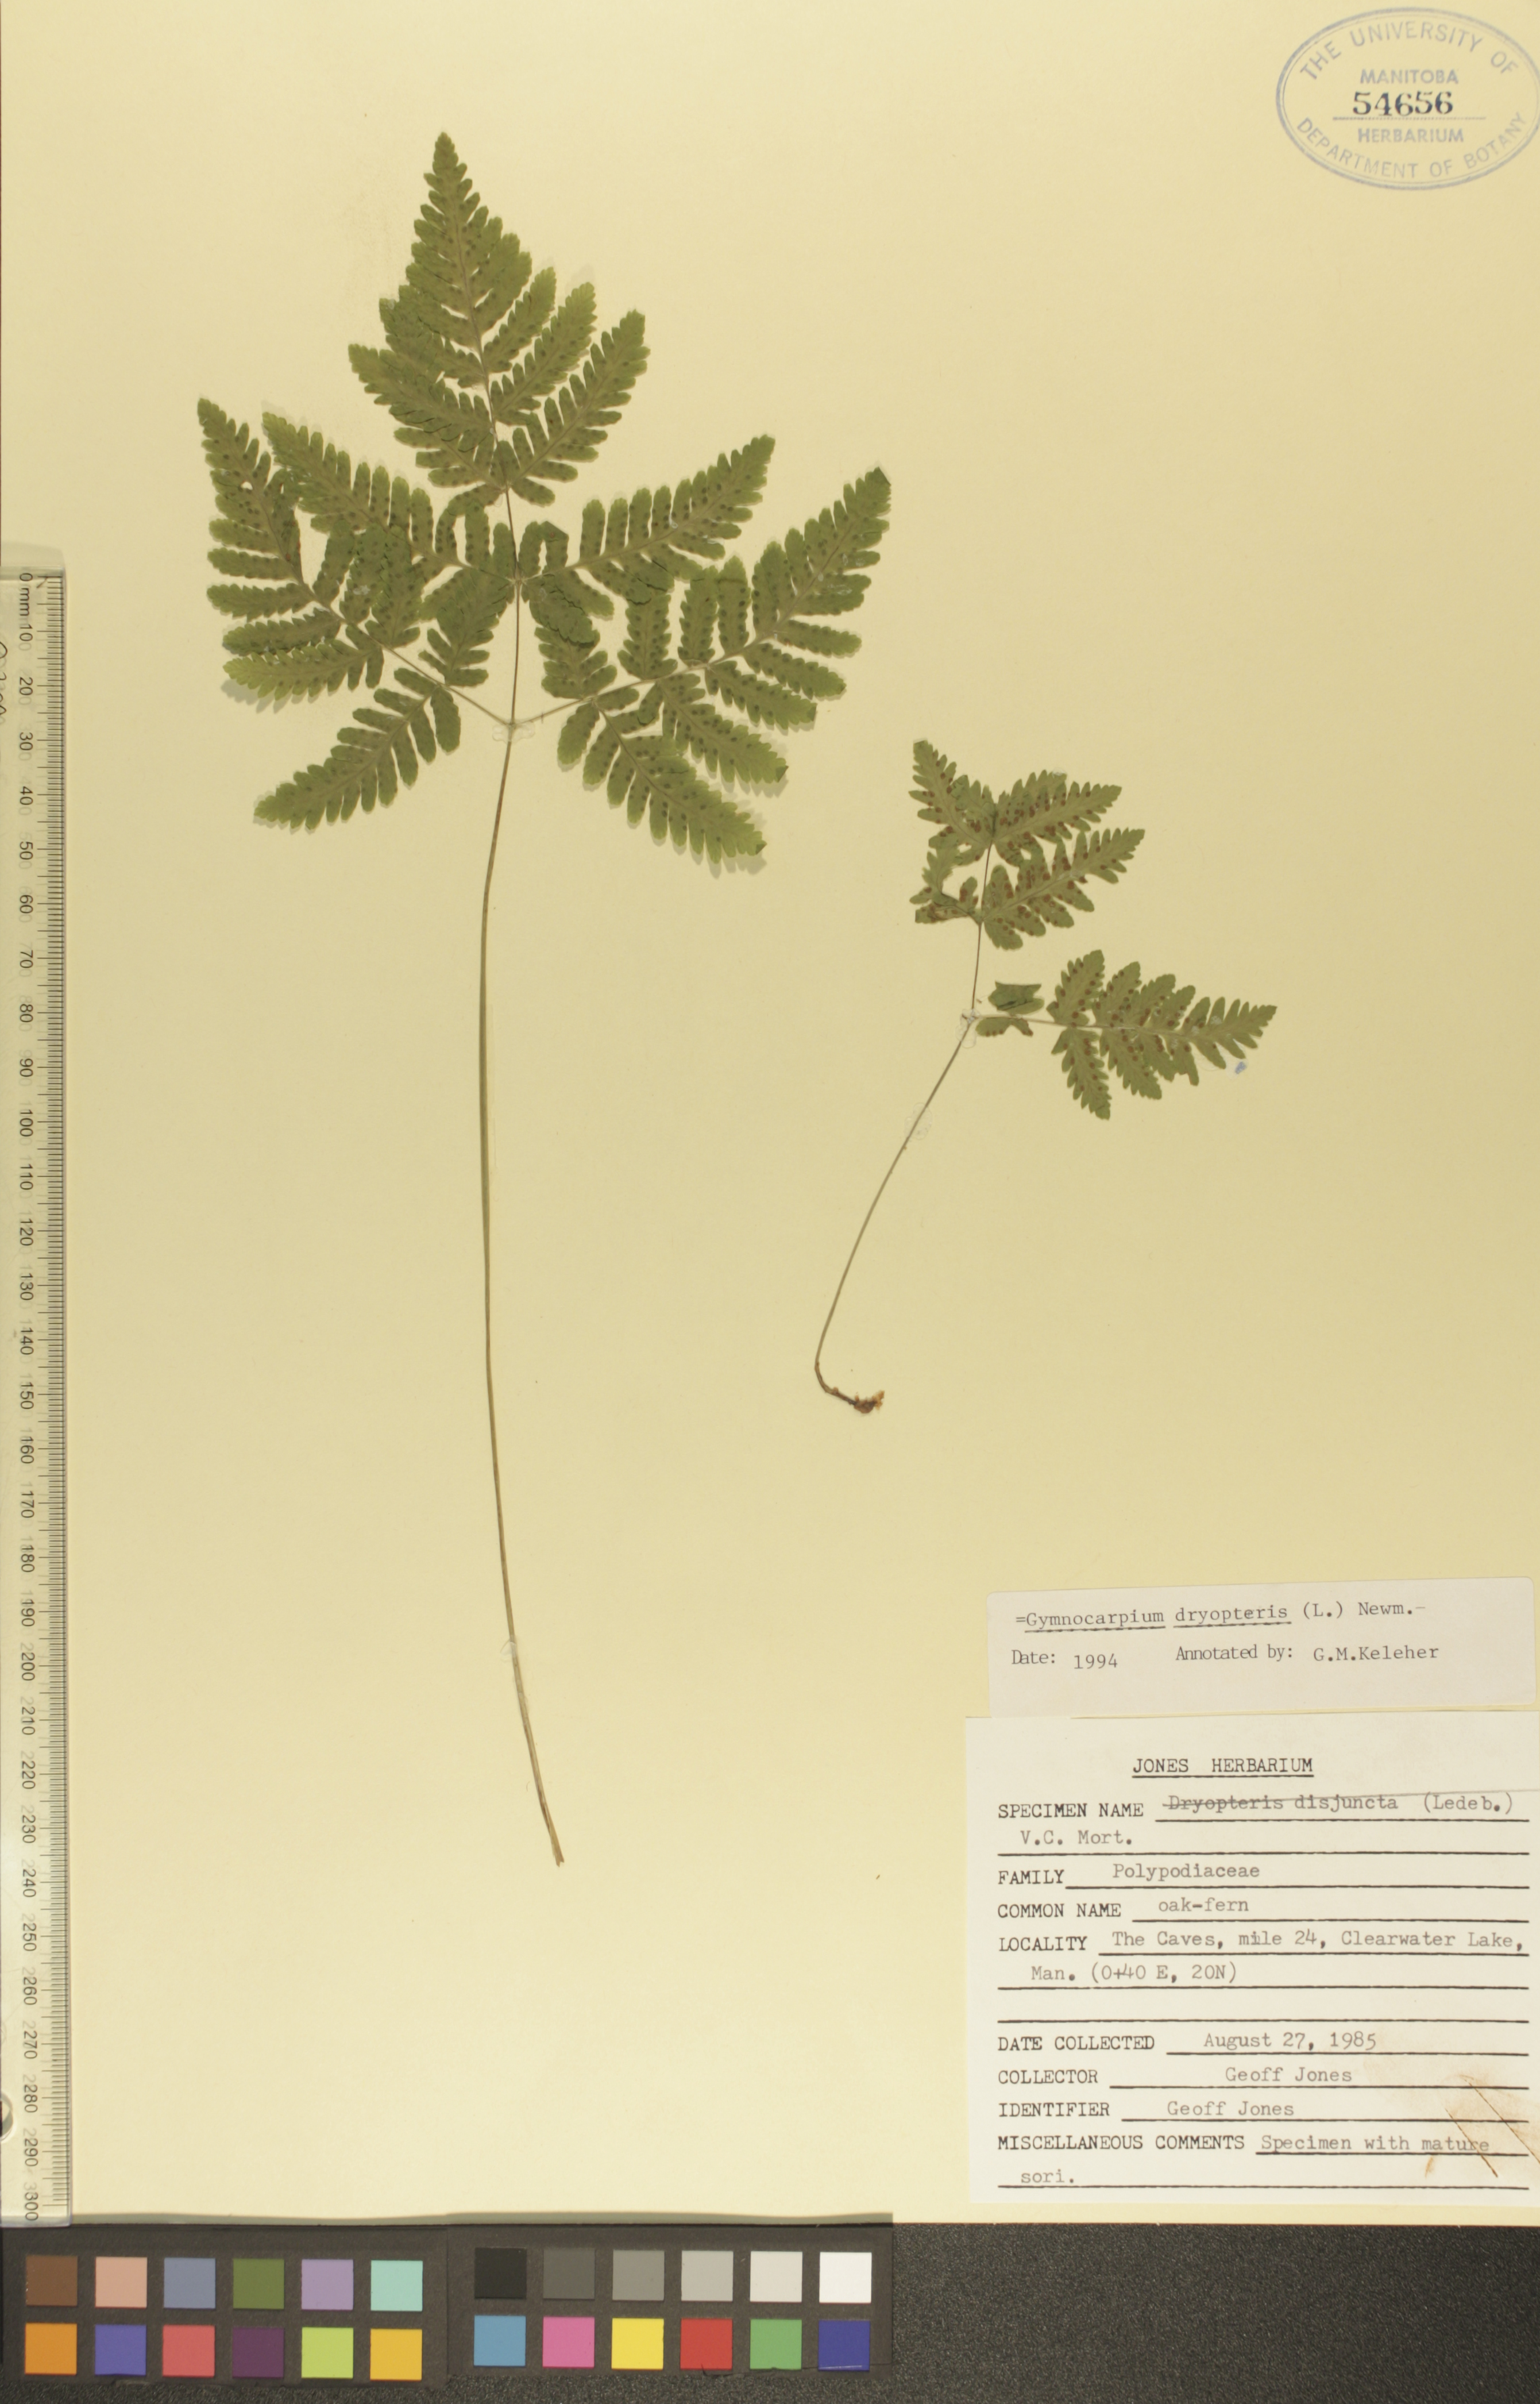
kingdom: Plantae
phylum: Tracheophyta
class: Polypodiopsida
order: Polypodiales
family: Cystopteridaceae
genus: Gymnocarpium
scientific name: Gymnocarpium dryopteris
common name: Oak fern
